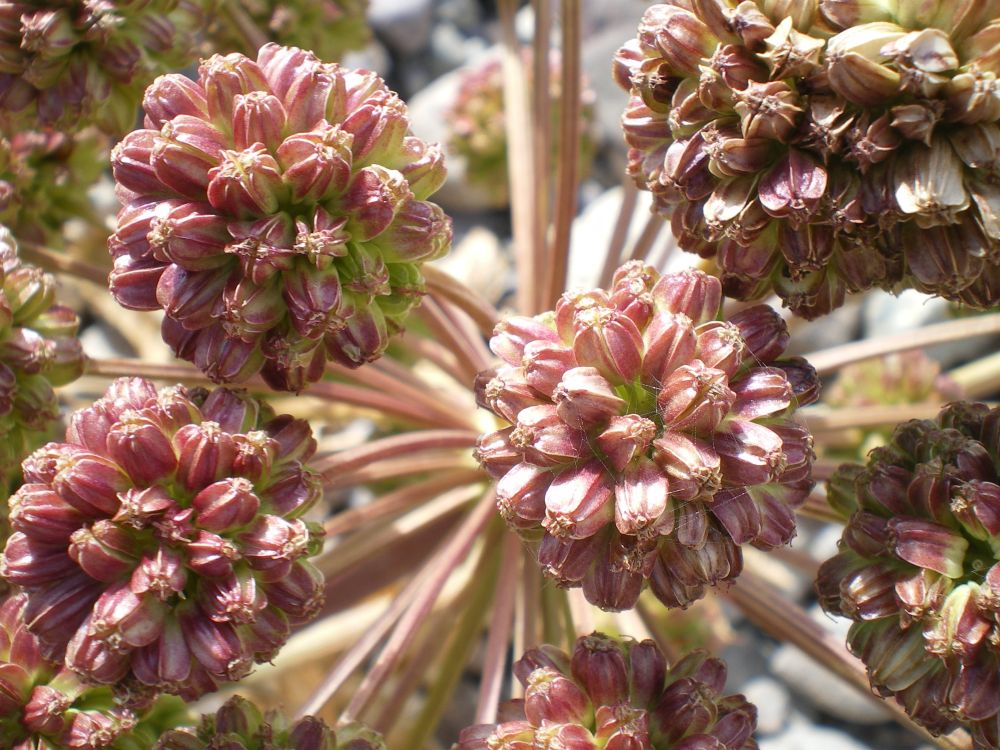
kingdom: Plantae
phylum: Tracheophyta
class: Magnoliopsida
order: Apiales
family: Apiaceae
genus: Angelica
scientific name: Angelica decurrens
